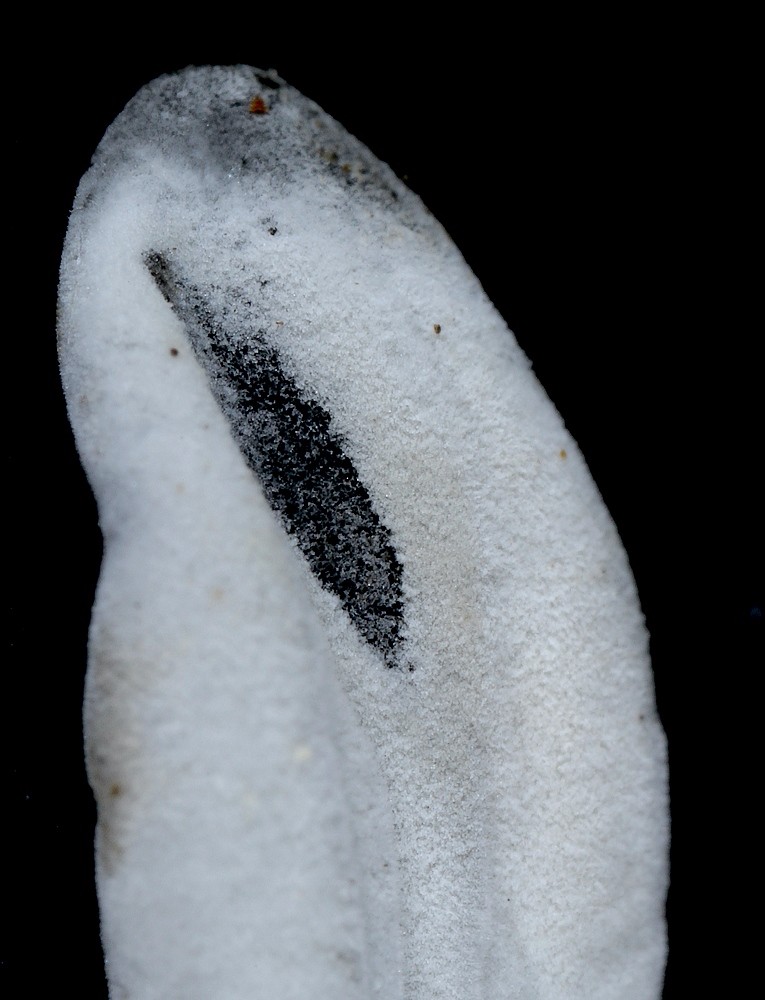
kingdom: Fungi
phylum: Ascomycota
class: Sordariomycetes
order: Hypocreales
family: Hypocreaceae
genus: Hypomyces
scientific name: Hypomyces papulasporae
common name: jordtunge-snylteskorpe
